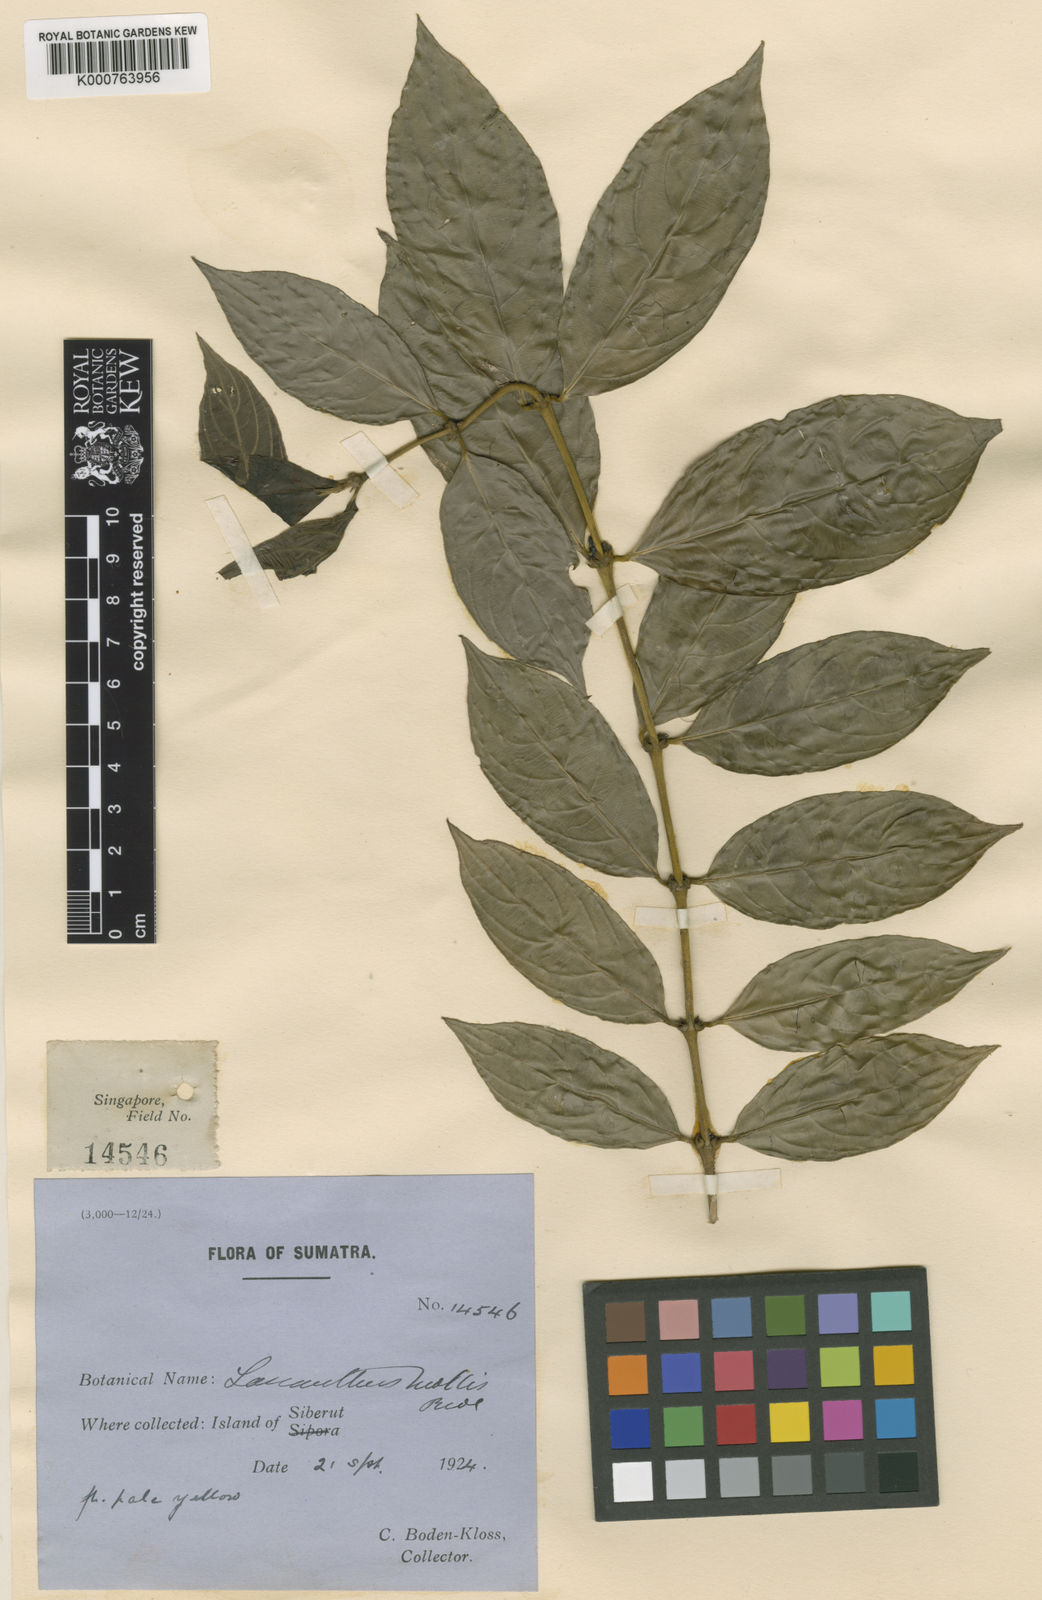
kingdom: Plantae
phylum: Tracheophyta
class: Magnoliopsida
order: Gentianales
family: Rubiaceae
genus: Lasianthus
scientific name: Lasianthus mollis
